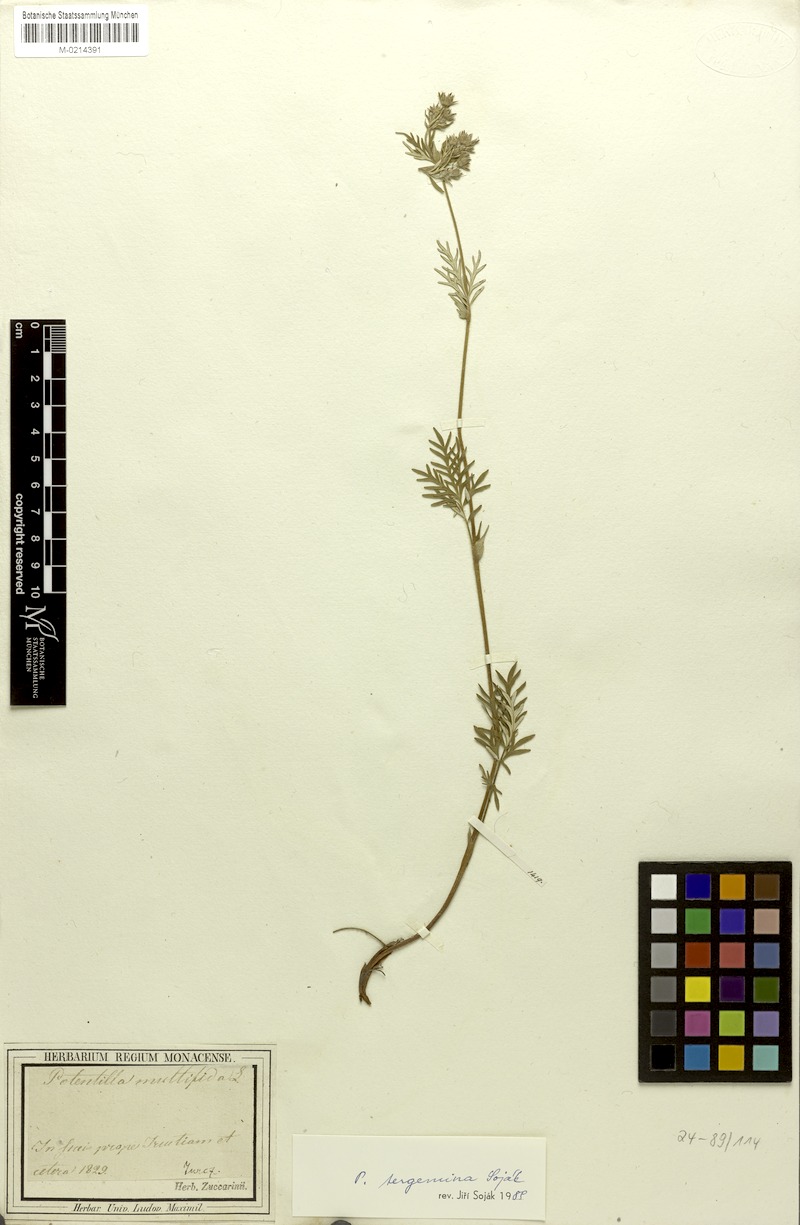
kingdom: Plantae
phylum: Tracheophyta
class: Magnoliopsida
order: Rosales
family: Rosaceae
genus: Potentilla
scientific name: Potentilla multifida
